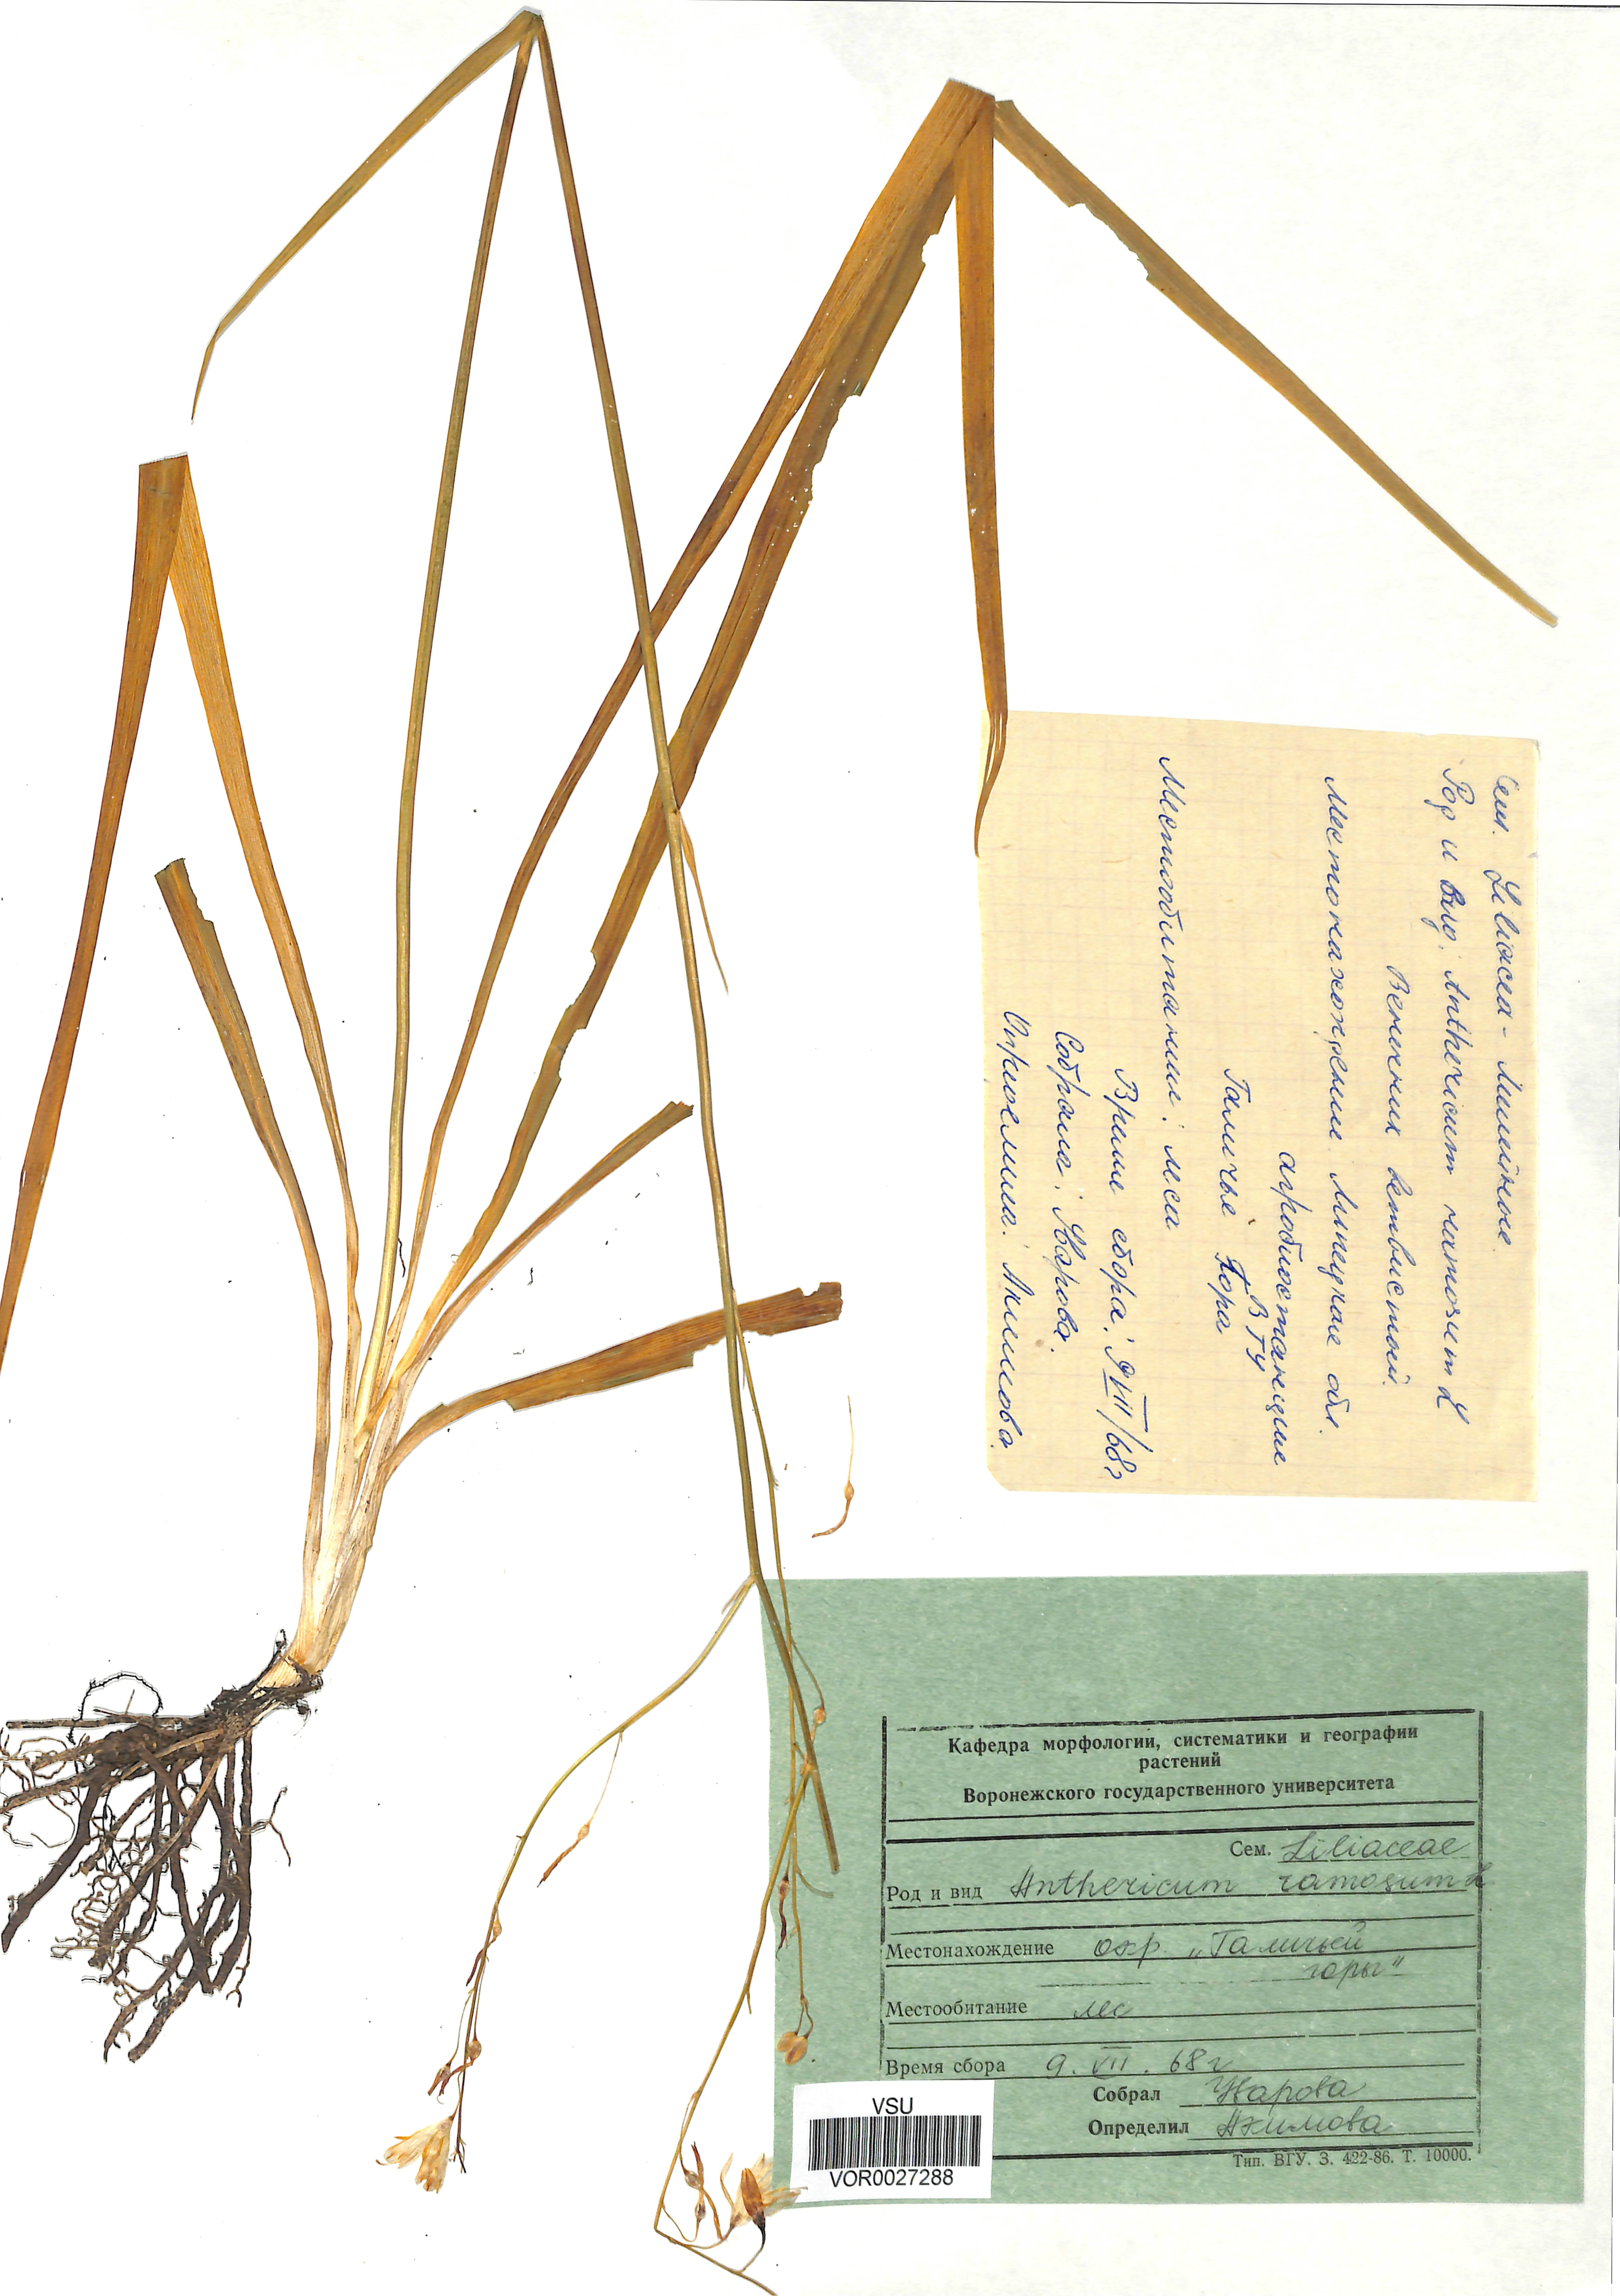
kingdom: Plantae
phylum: Tracheophyta
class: Liliopsida
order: Asparagales
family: Asparagaceae
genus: Anthericum
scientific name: Anthericum ramosum
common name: Branched st. bernard's-lily
